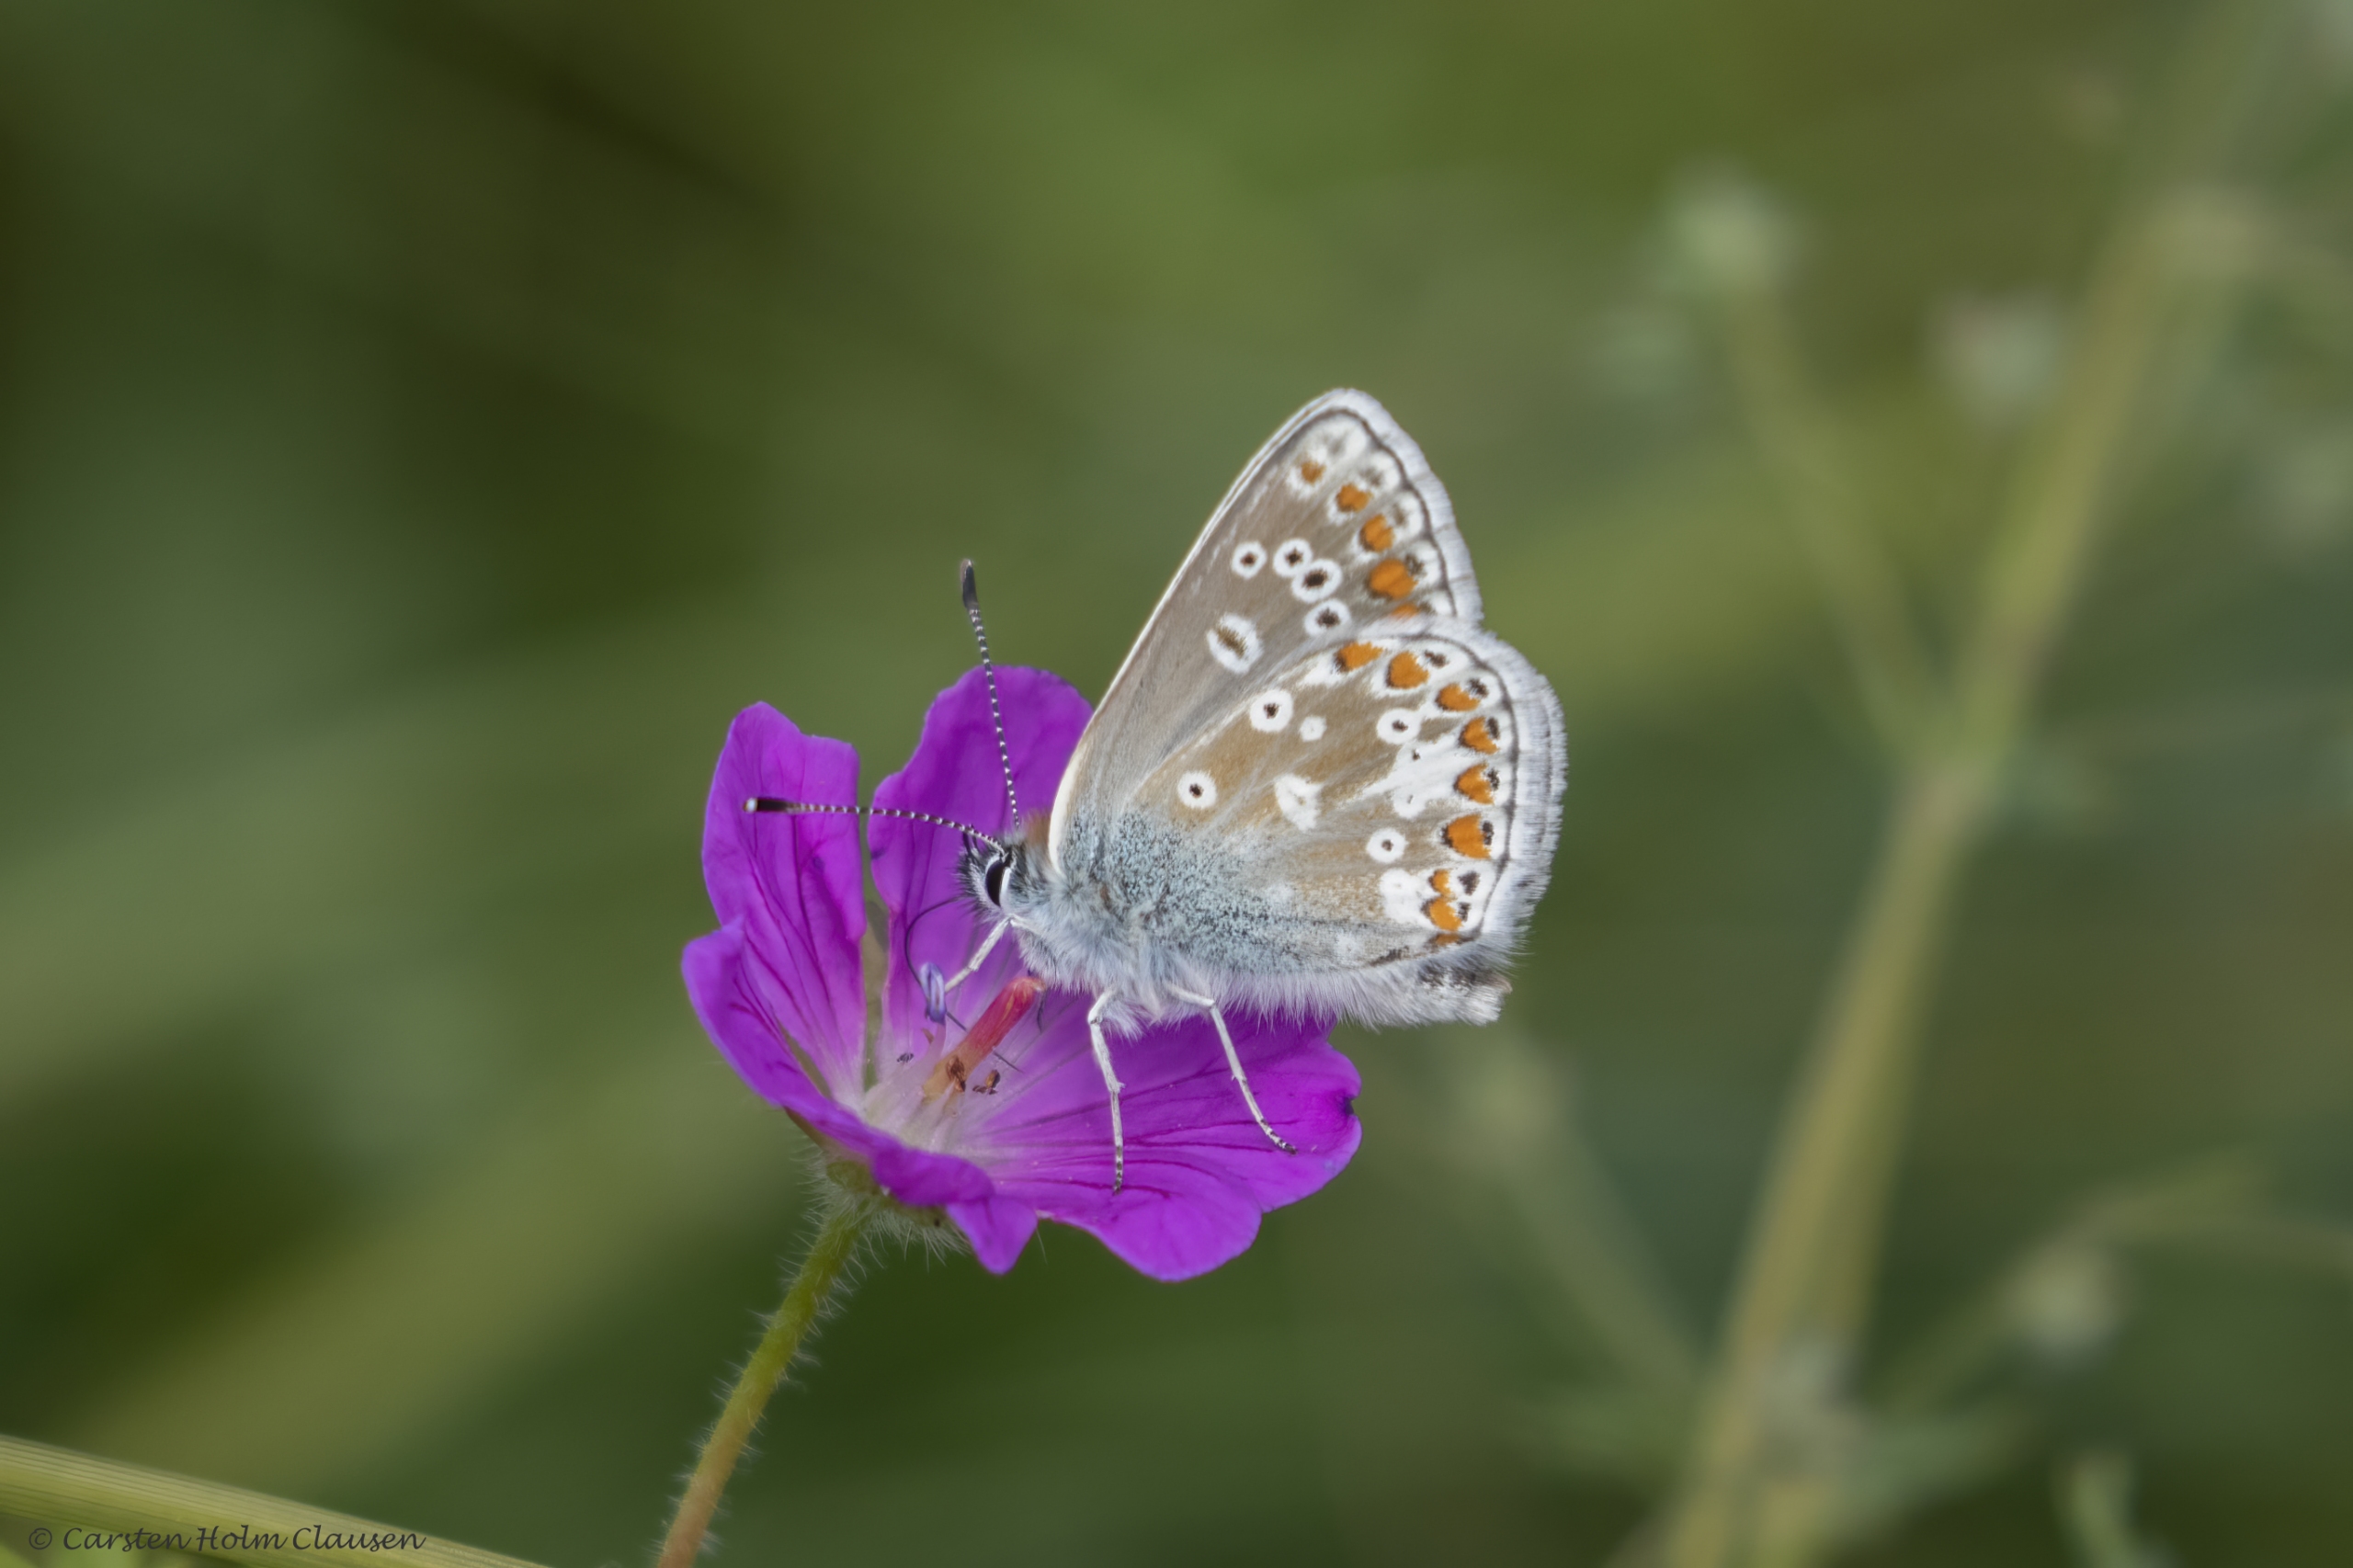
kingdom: Animalia
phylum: Arthropoda
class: Insecta
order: Lepidoptera
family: Lycaenidae
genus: Aricia
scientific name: Aricia artaxerxes
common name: Sortbrun blåfugl
